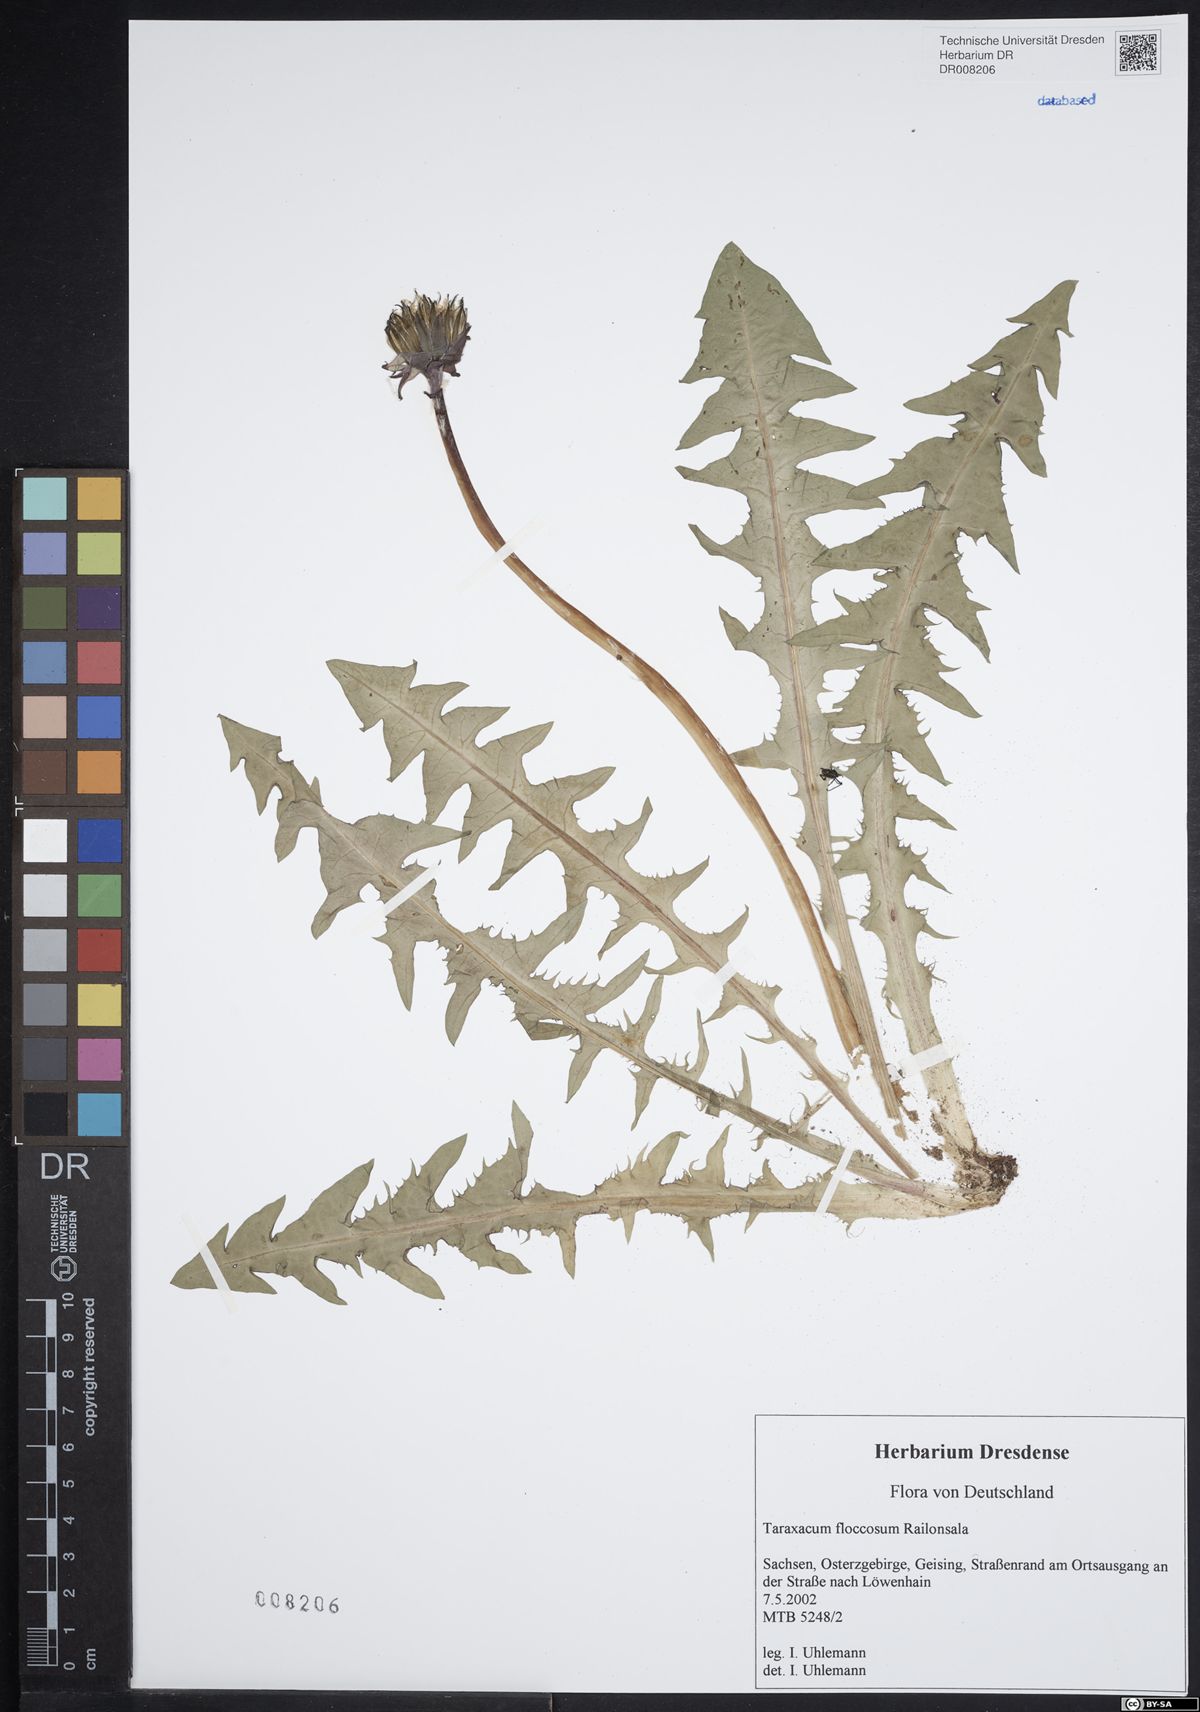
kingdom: Plantae
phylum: Tracheophyta
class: Magnoliopsida
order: Asterales
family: Asteraceae
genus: Taraxacum
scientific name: Taraxacum floccosum
